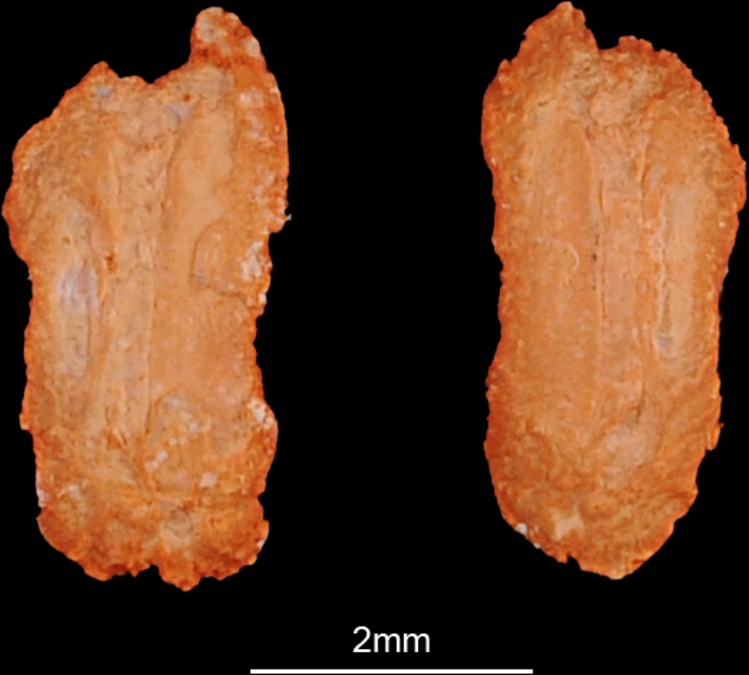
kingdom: Animalia
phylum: Chordata
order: Mugiliformes
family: Mugilidae
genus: Planiliza
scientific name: Planiliza abu
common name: Abu mullet
